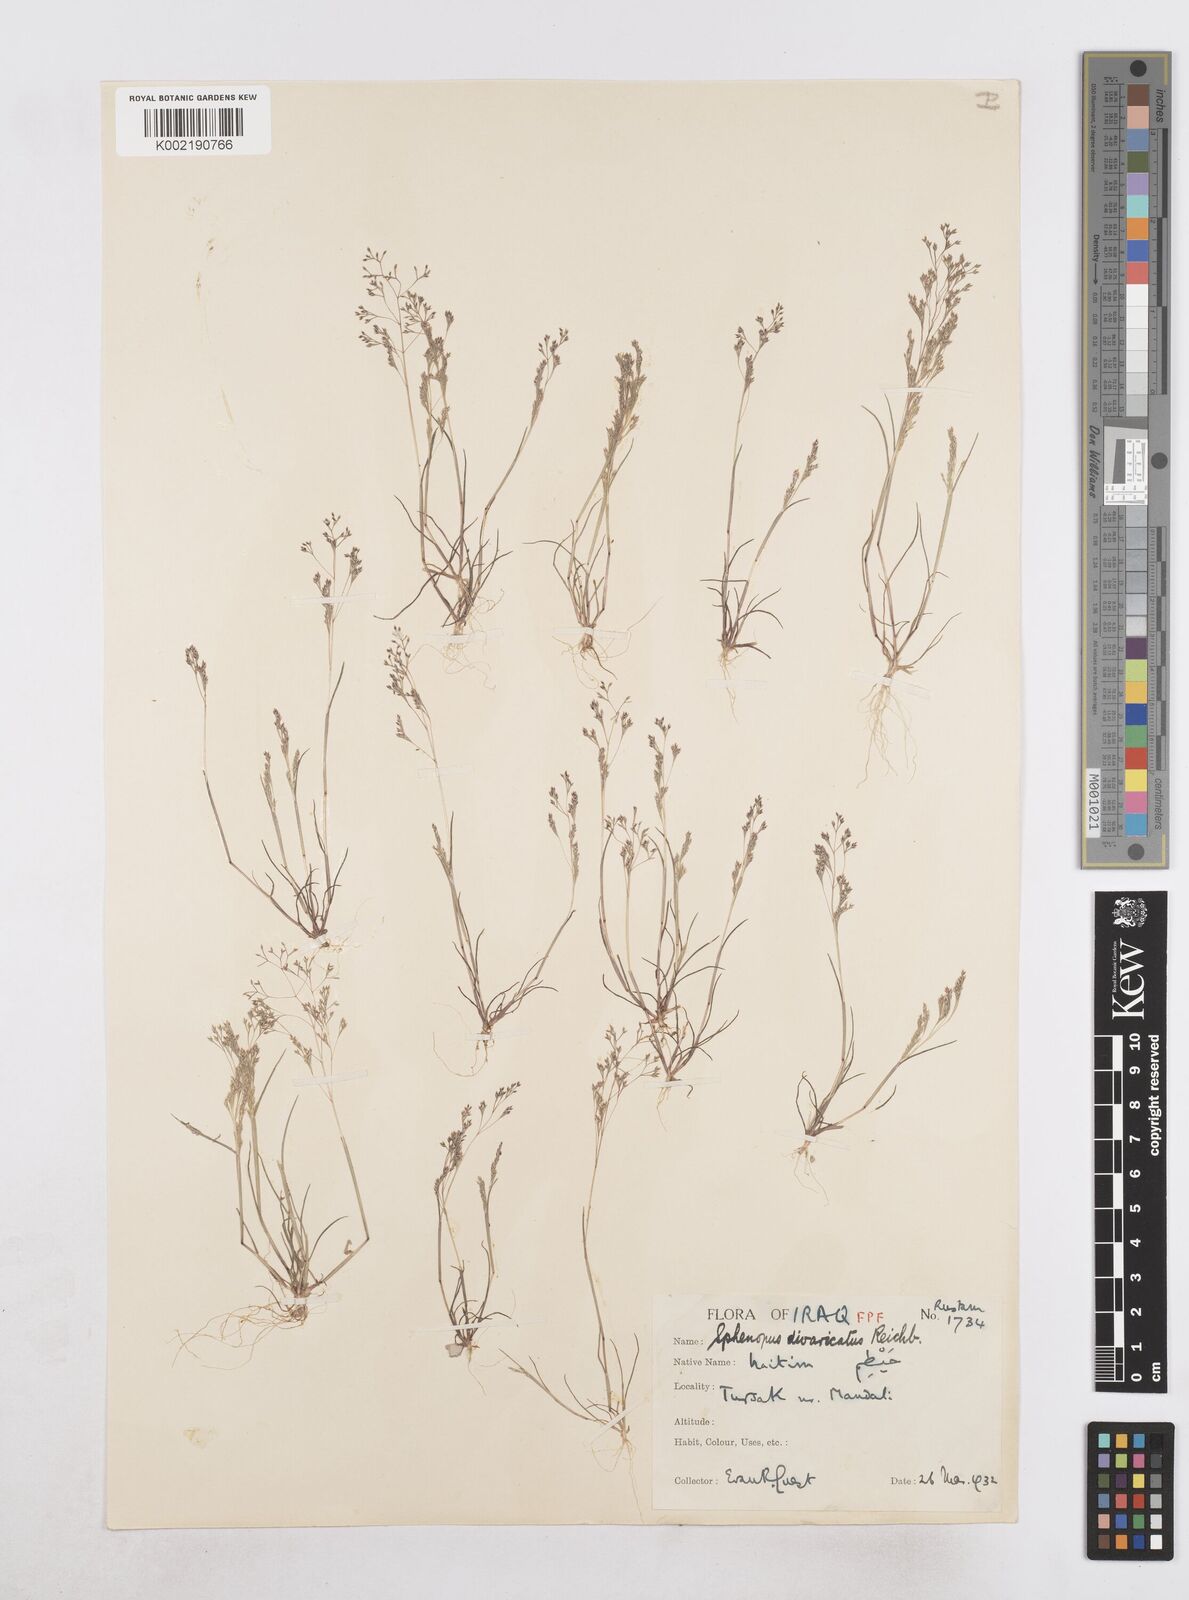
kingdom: Plantae
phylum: Tracheophyta
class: Liliopsida
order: Poales
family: Poaceae
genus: Sphenopus
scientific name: Sphenopus divaricatus
